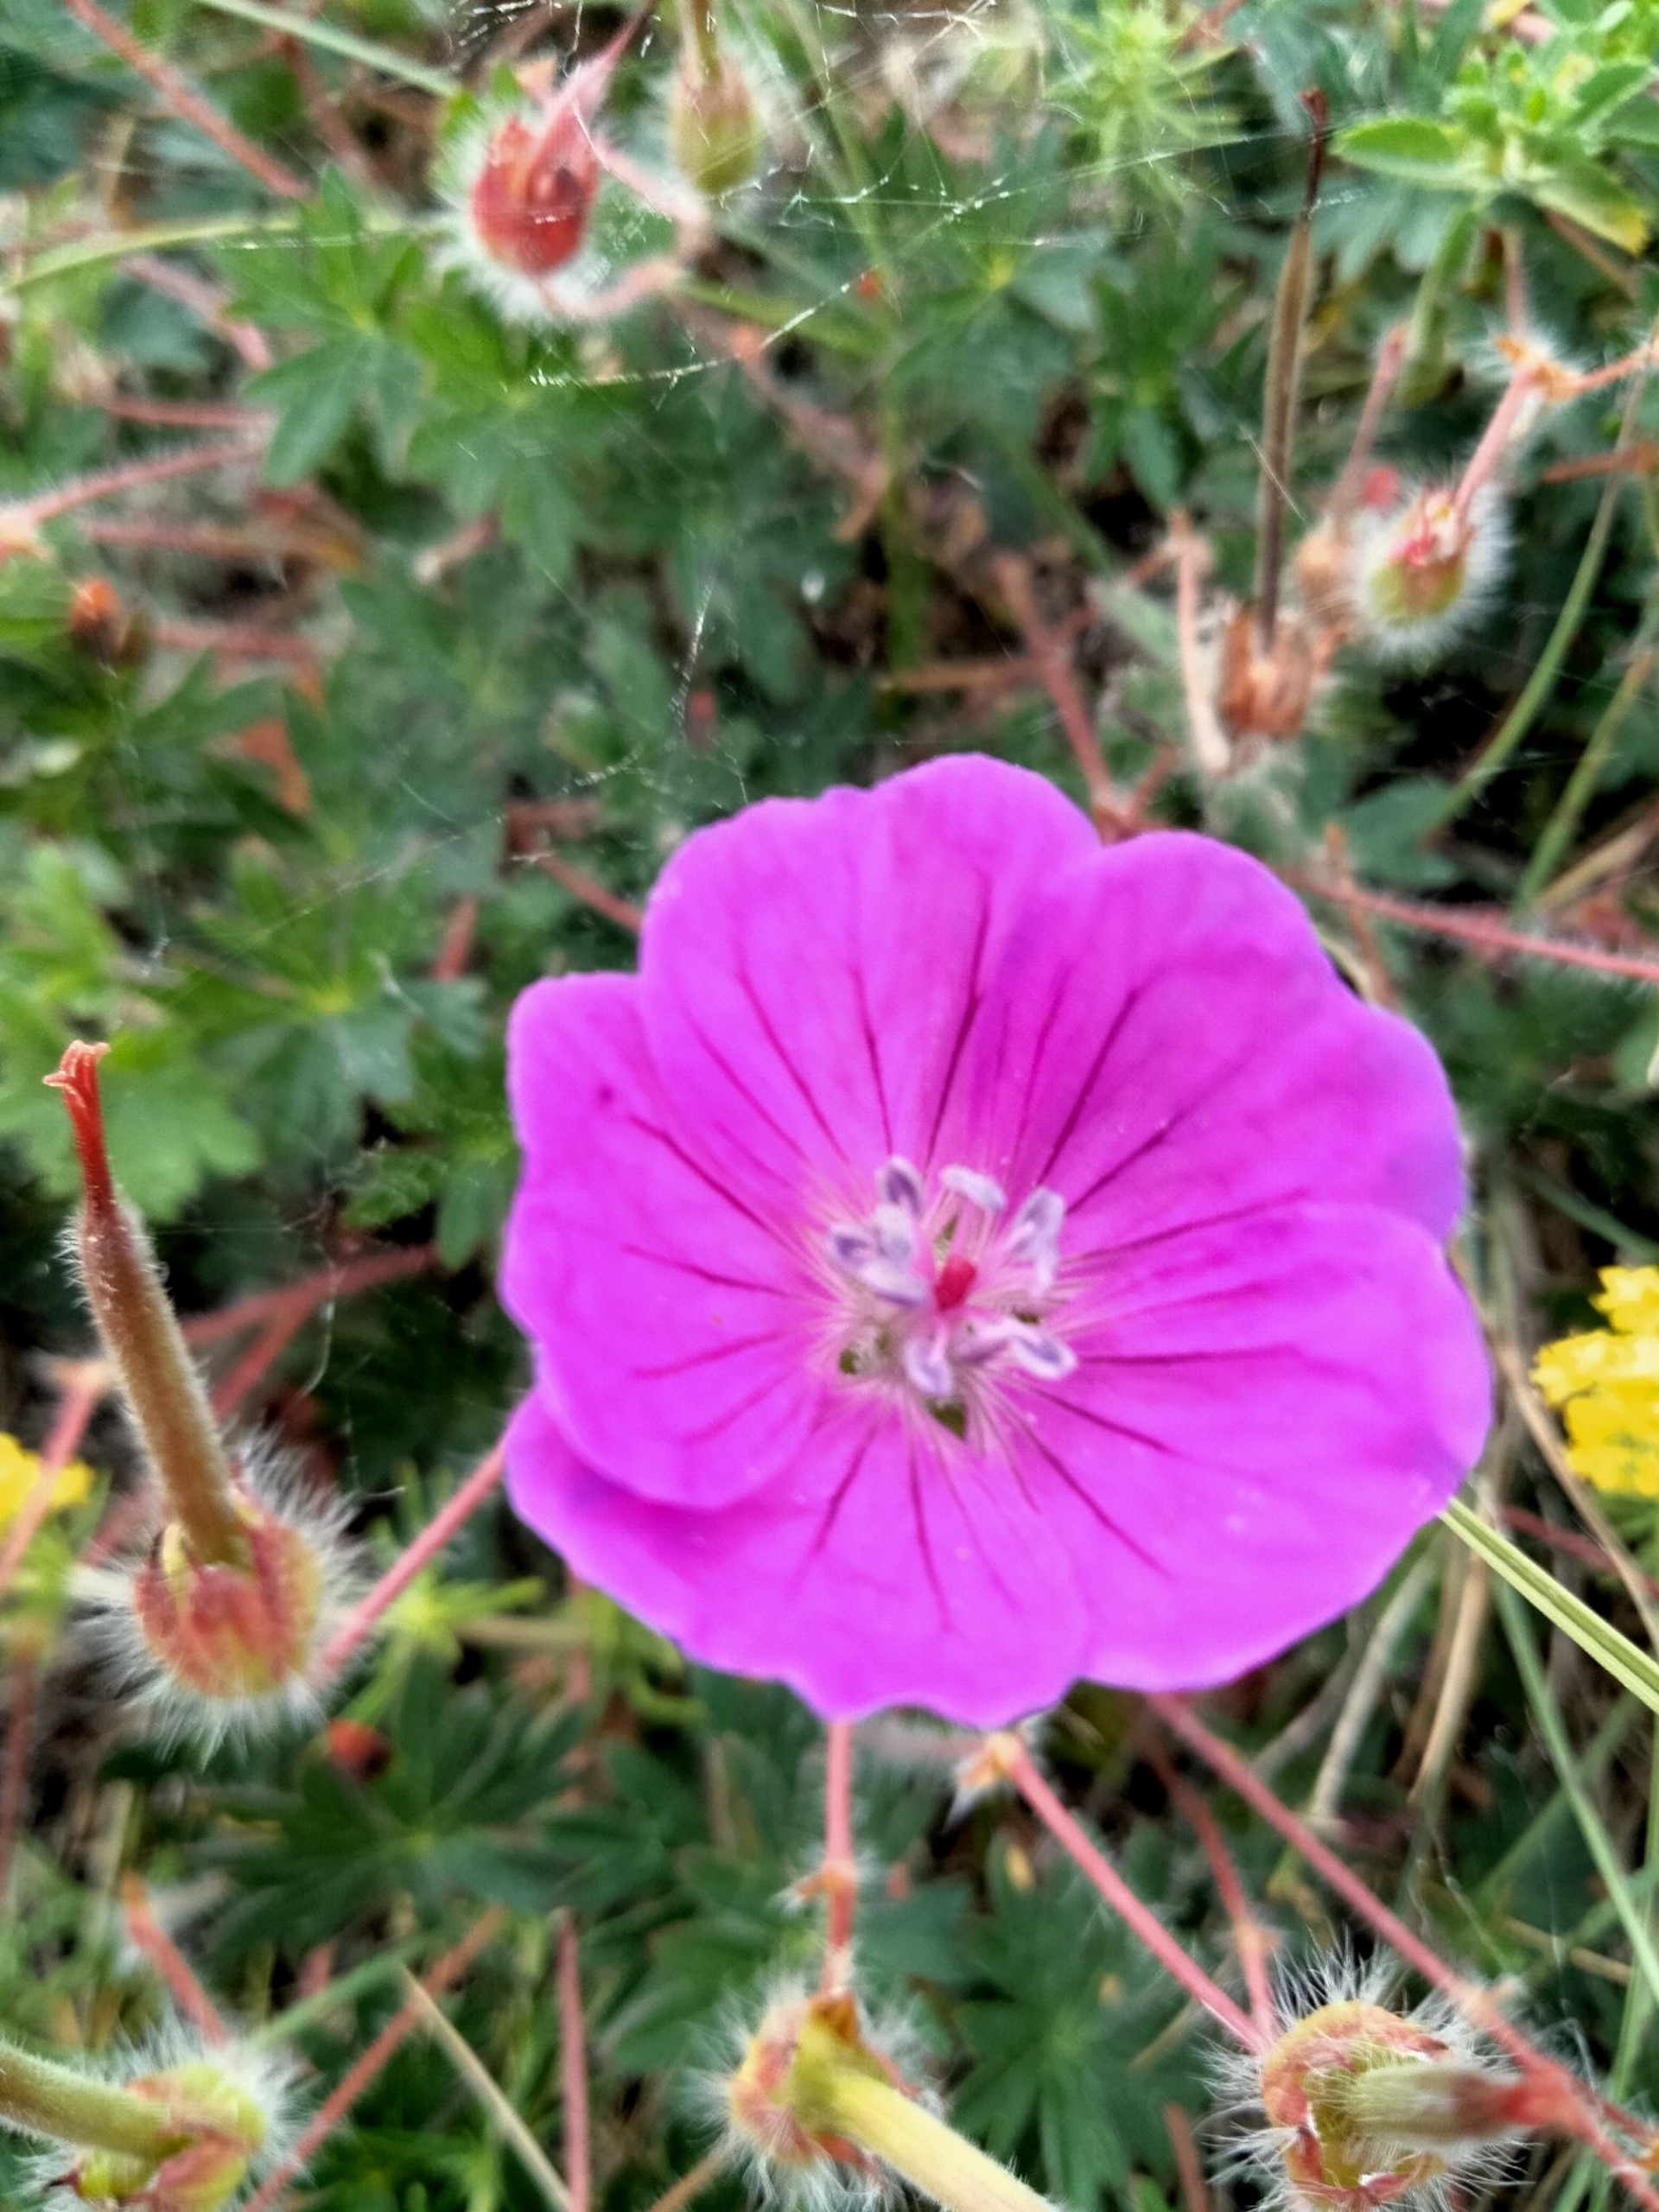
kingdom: Plantae
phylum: Tracheophyta
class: Magnoliopsida
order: Geraniales
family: Geraniaceae
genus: Geranium
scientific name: Geranium sanguineum
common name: Blodrød storkenæb
